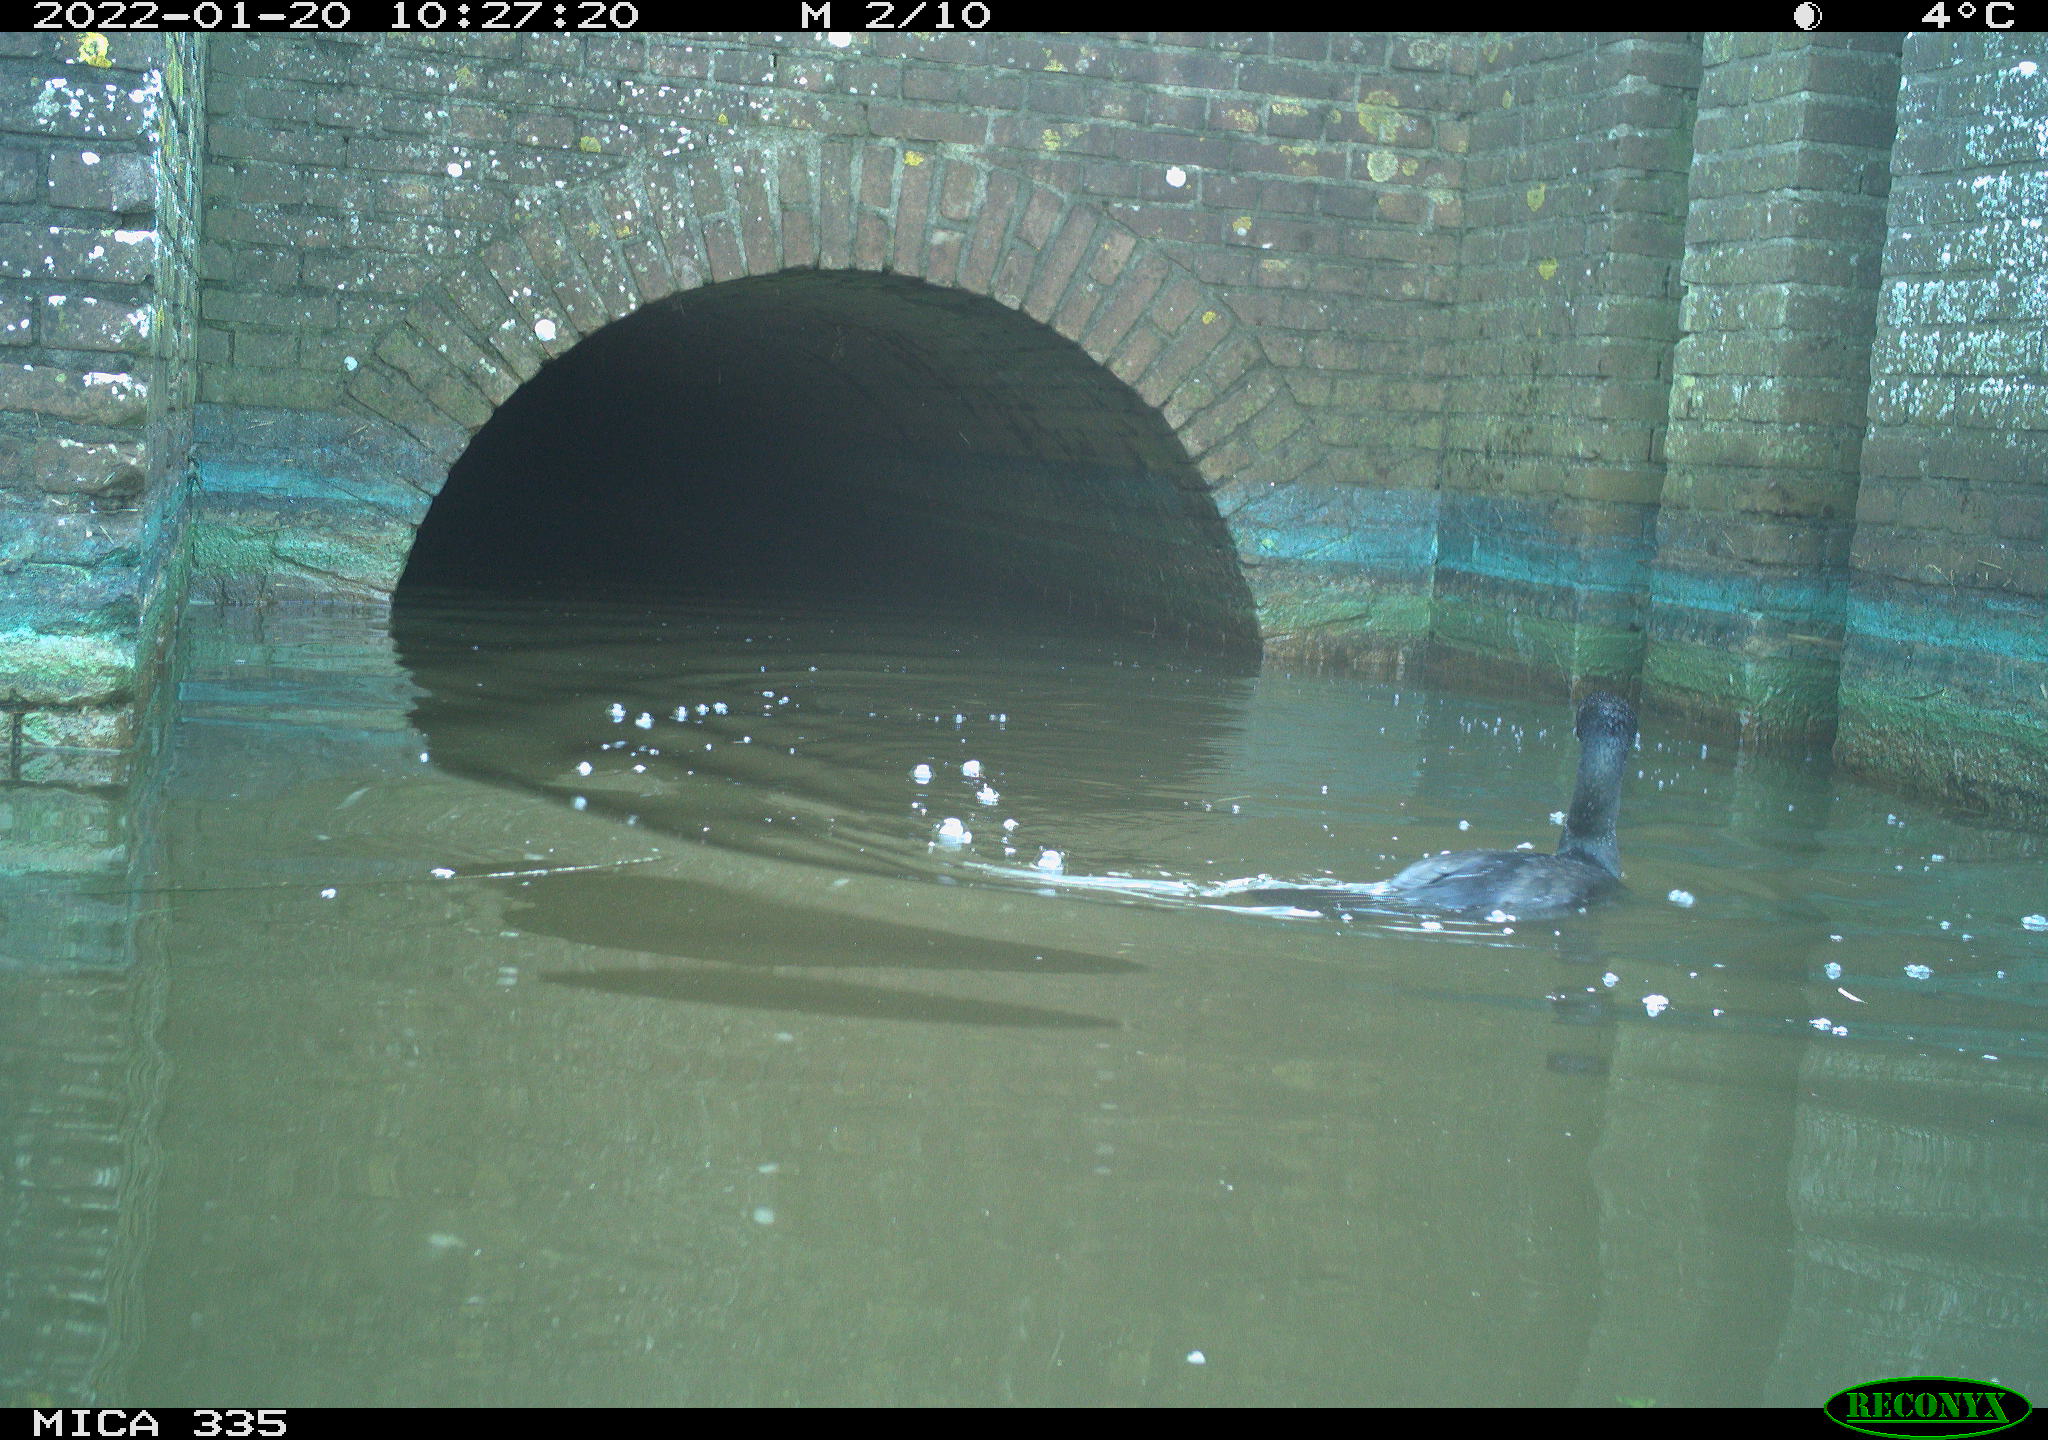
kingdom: Animalia
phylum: Chordata
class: Aves
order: Suliformes
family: Phalacrocoracidae
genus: Phalacrocorax
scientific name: Phalacrocorax carbo
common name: Great cormorant
